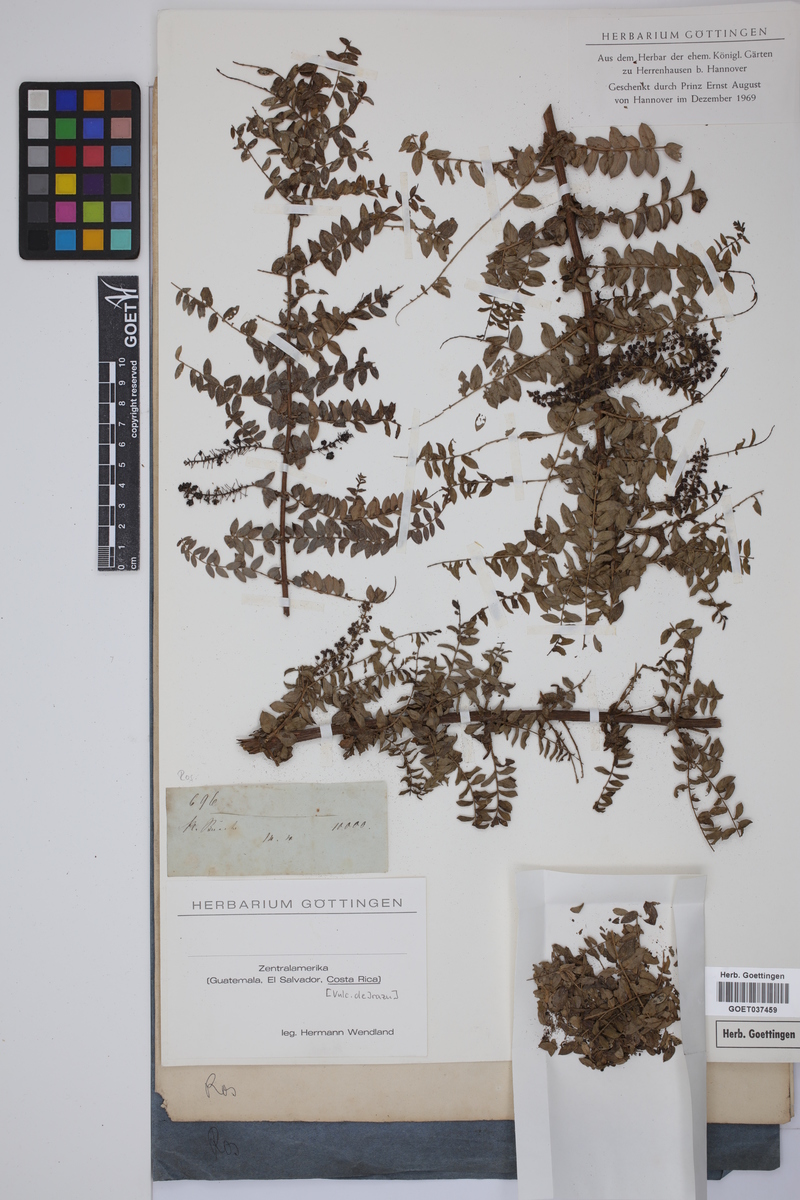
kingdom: Plantae
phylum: Tracheophyta
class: Magnoliopsida
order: Rosales
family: Rosaceae
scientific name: Rosaceae
